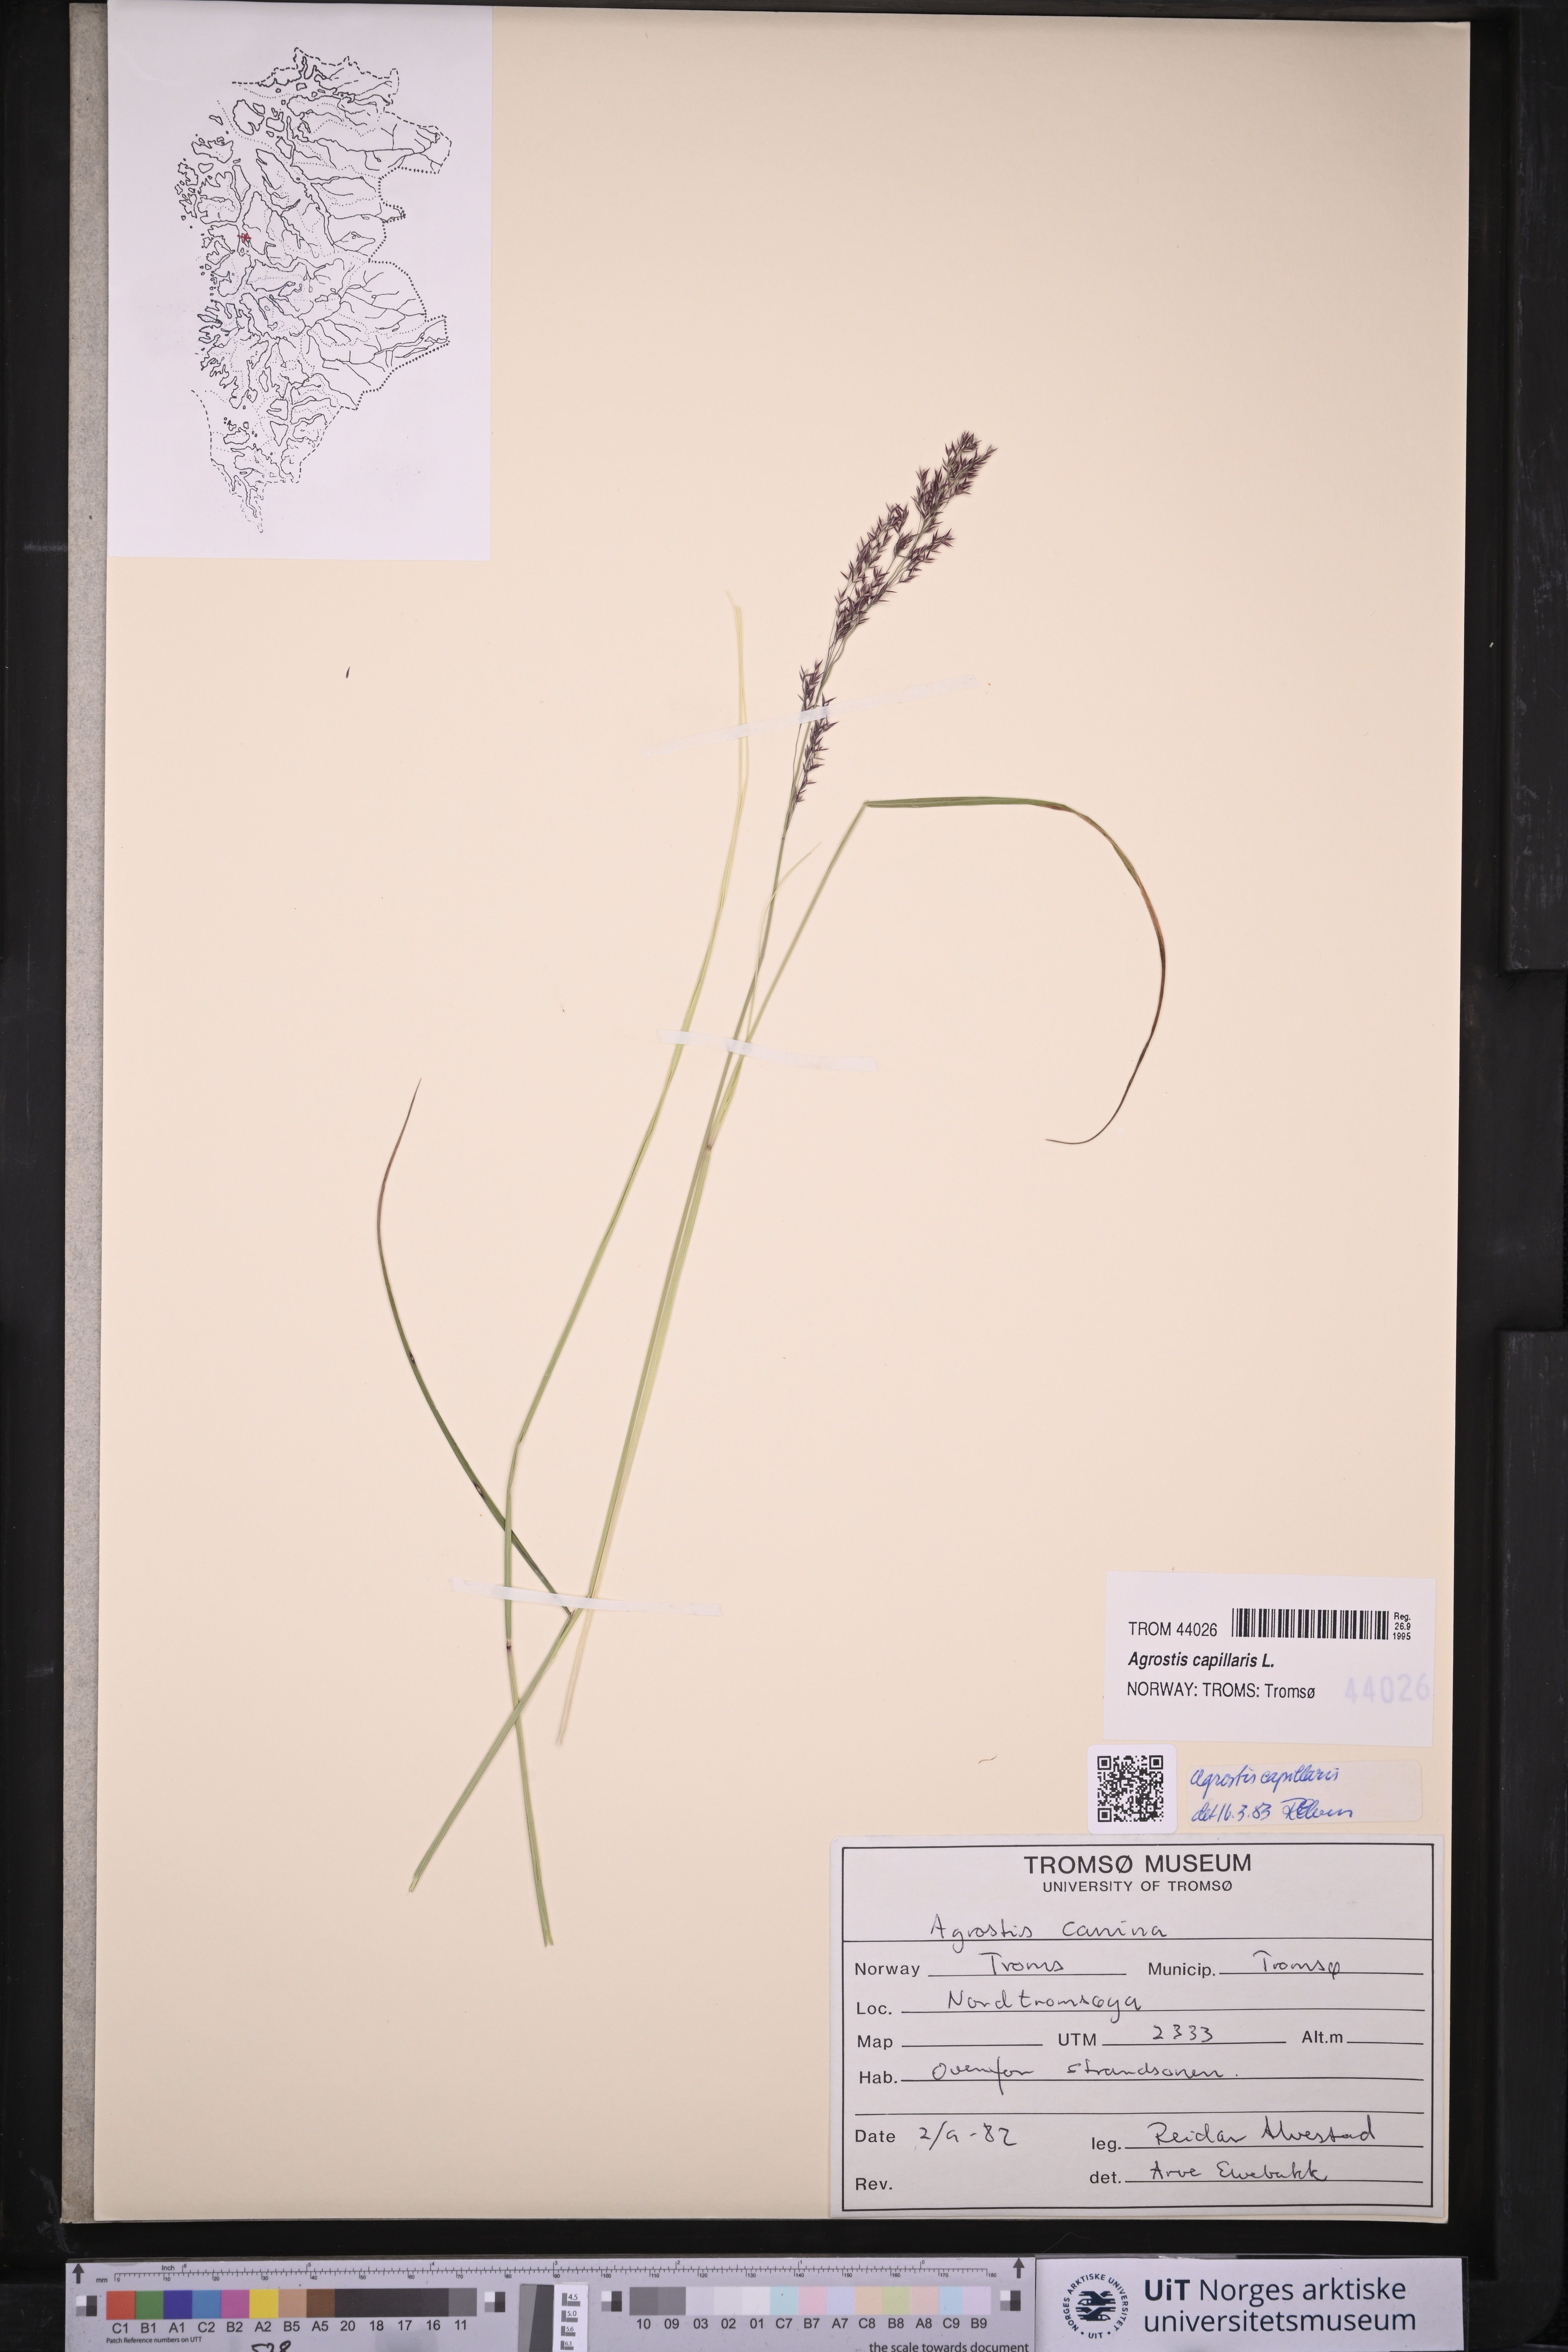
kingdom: Plantae
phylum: Tracheophyta
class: Liliopsida
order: Poales
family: Poaceae
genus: Agrostis
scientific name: Agrostis capillaris
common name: Colonial bentgrass
